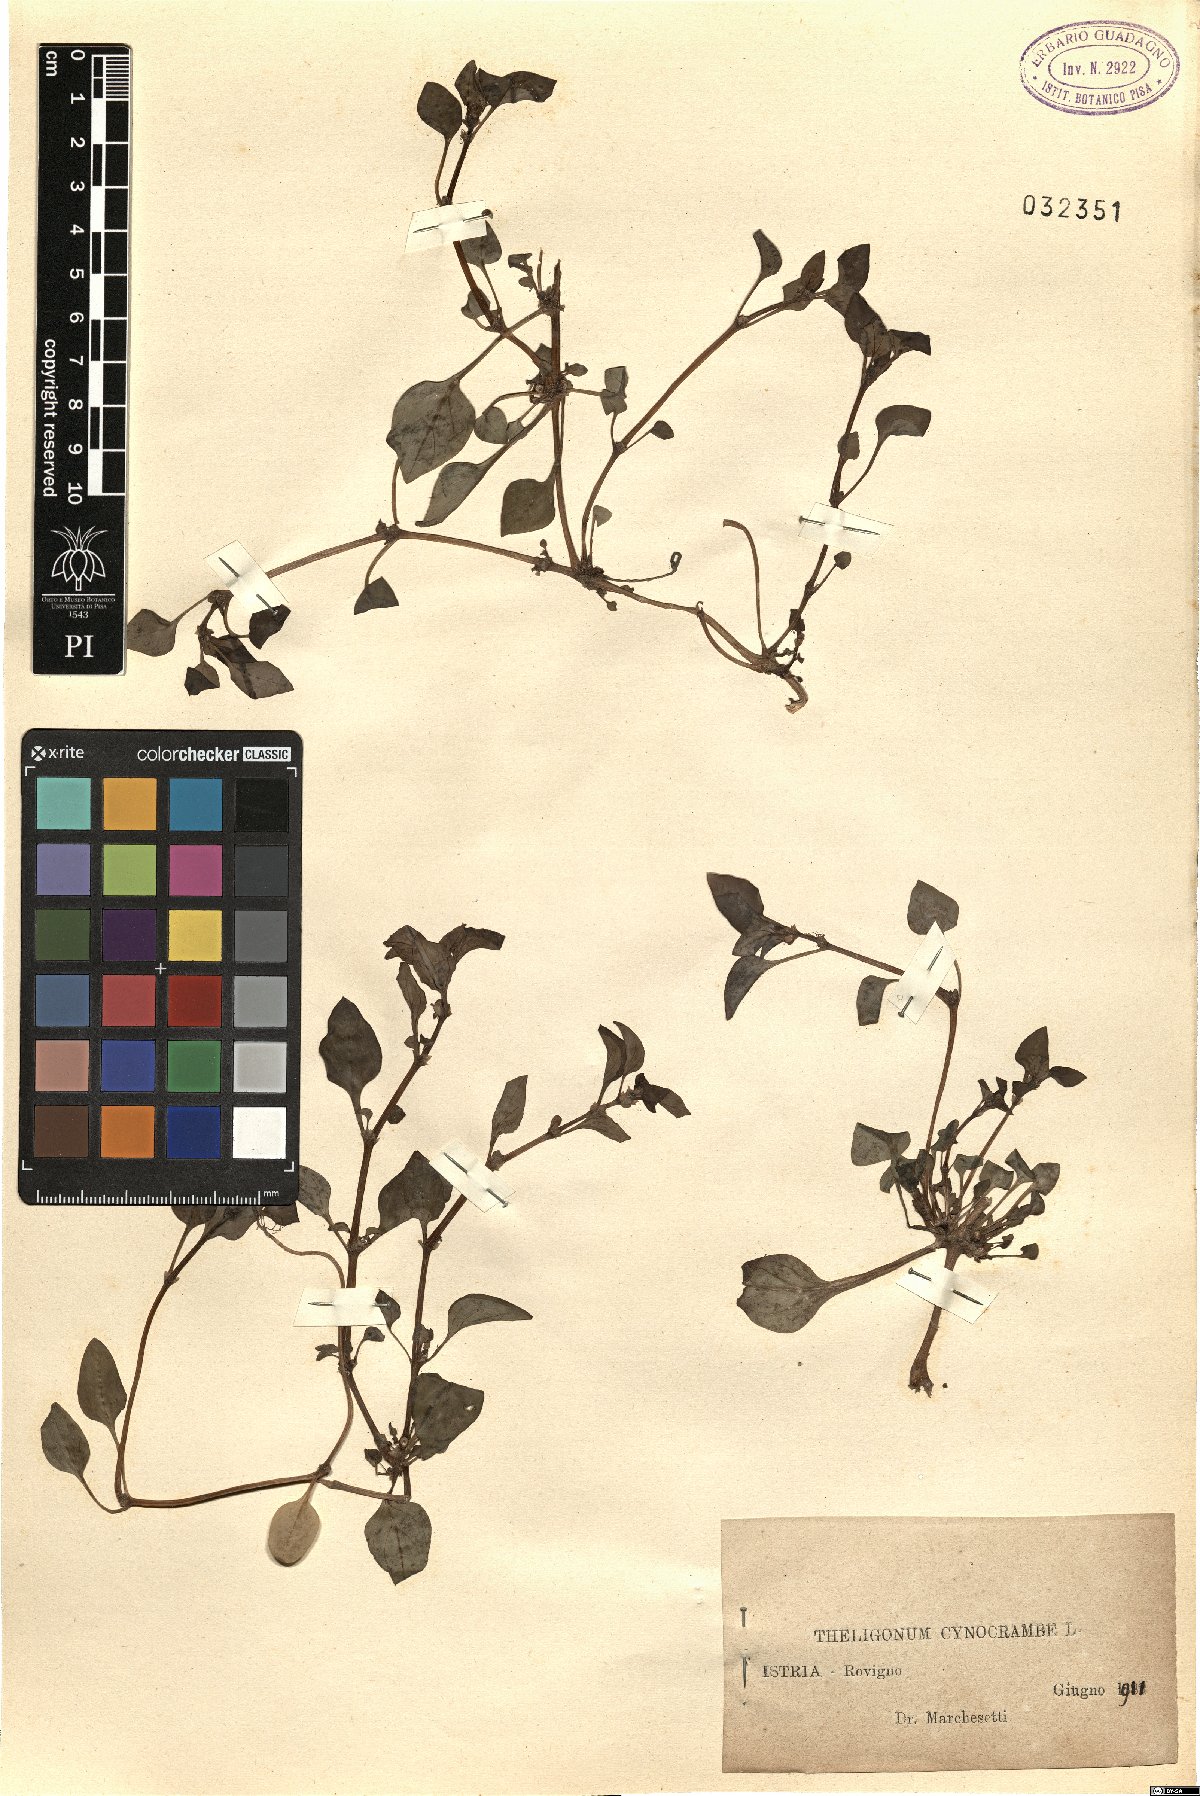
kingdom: Plantae
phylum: Tracheophyta
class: Magnoliopsida
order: Gentianales
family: Rubiaceae
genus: Theligonum
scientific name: Theligonum cynocrambe
